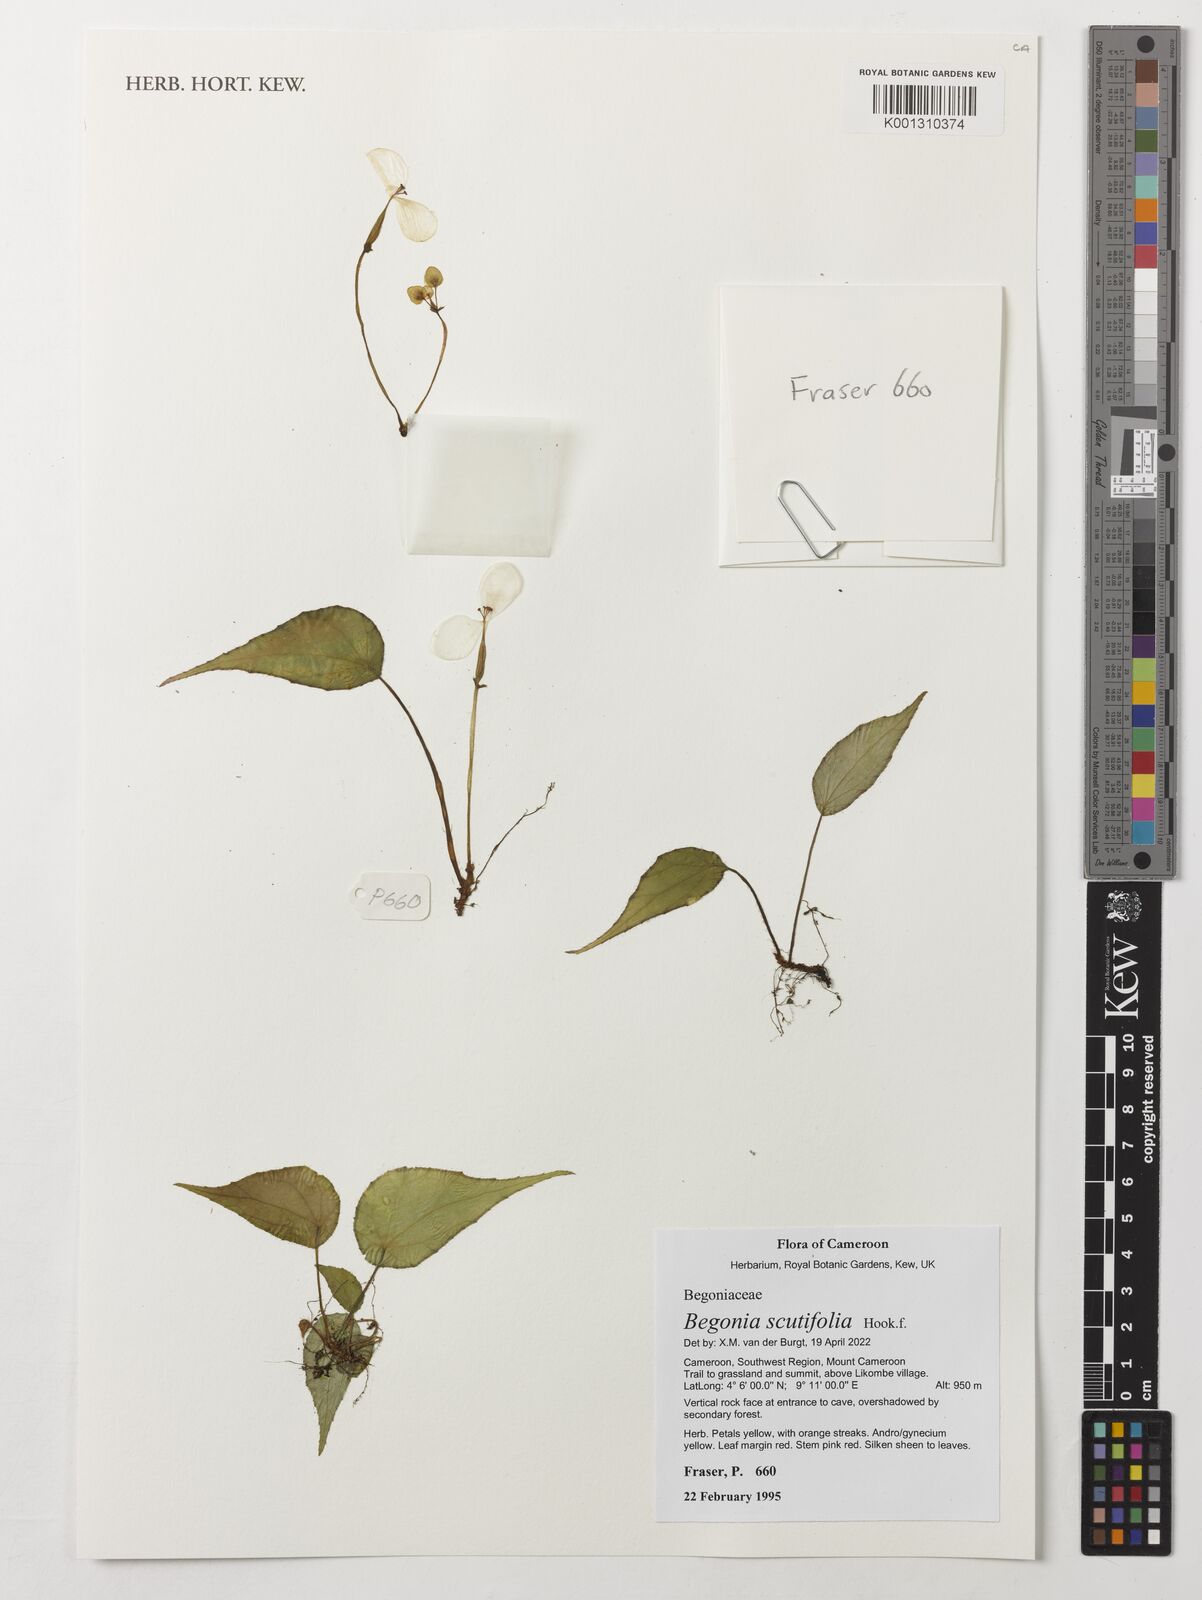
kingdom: Plantae
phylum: Tracheophyta
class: Magnoliopsida
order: Cucurbitales
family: Begoniaceae
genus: Begonia
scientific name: Begonia scutifolia
